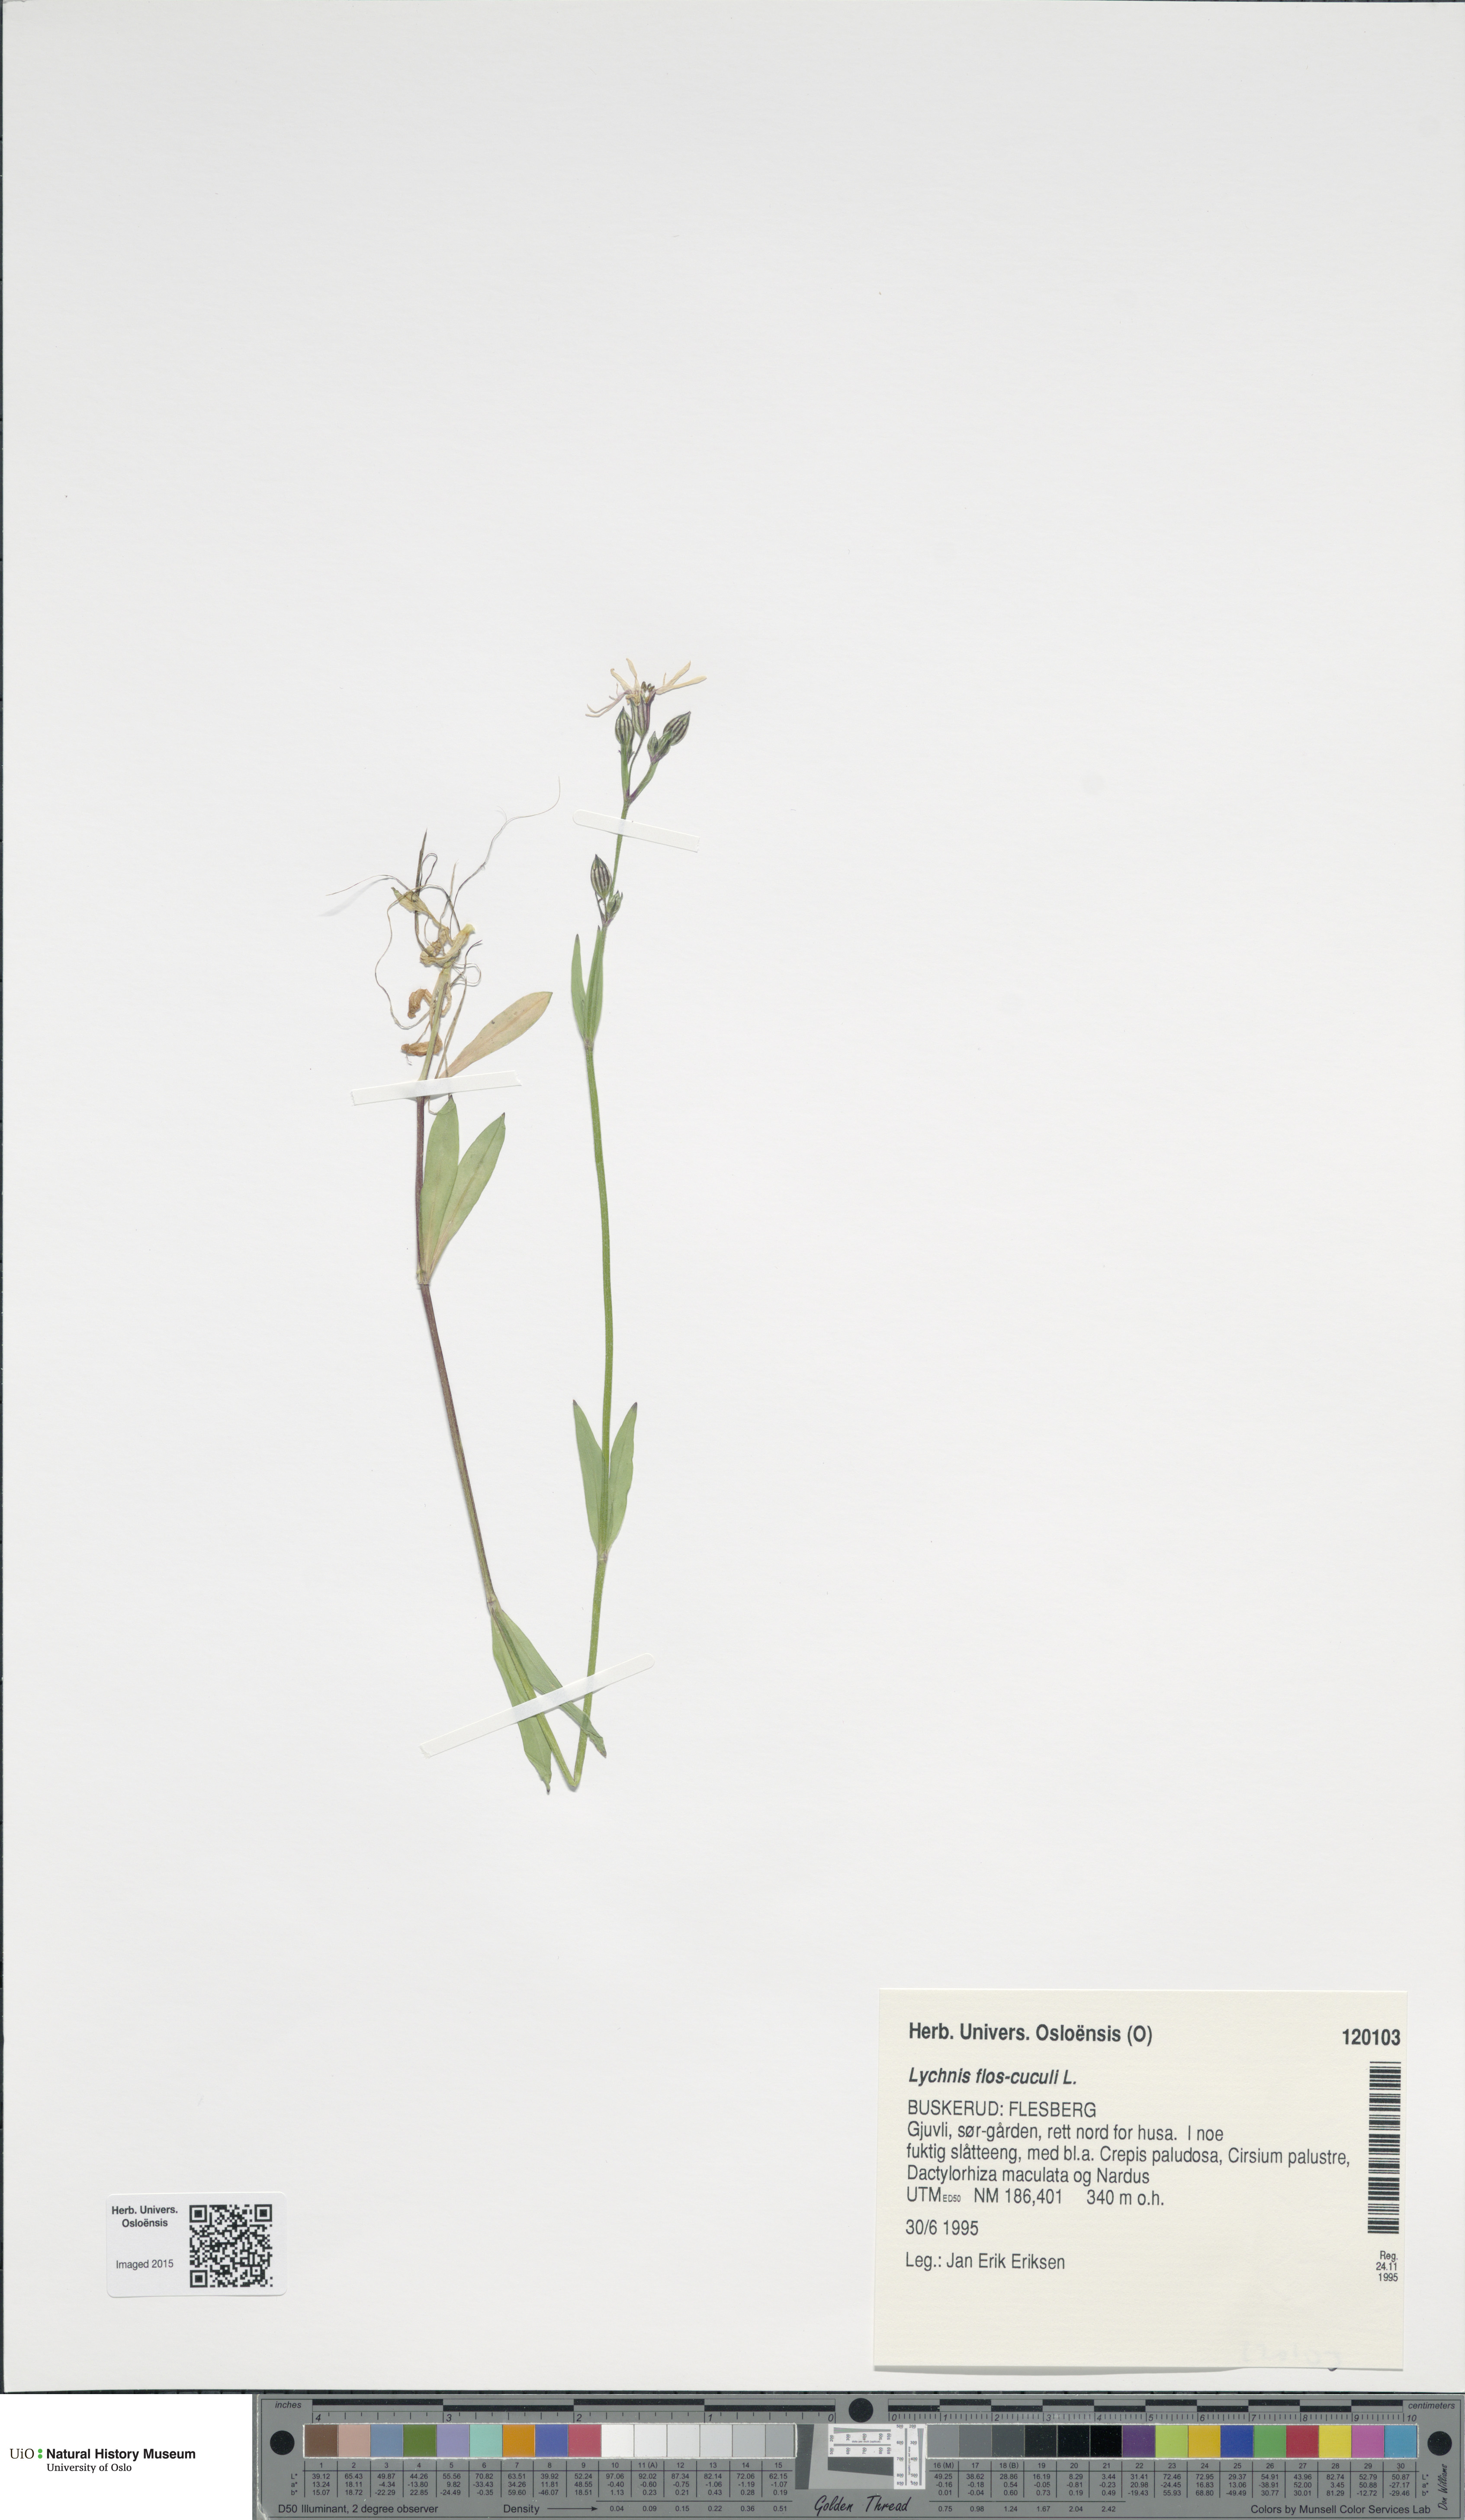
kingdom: Plantae
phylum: Tracheophyta
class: Magnoliopsida
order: Caryophyllales
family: Caryophyllaceae
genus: Silene
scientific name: Silene flos-cuculi
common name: Ragged-robin
